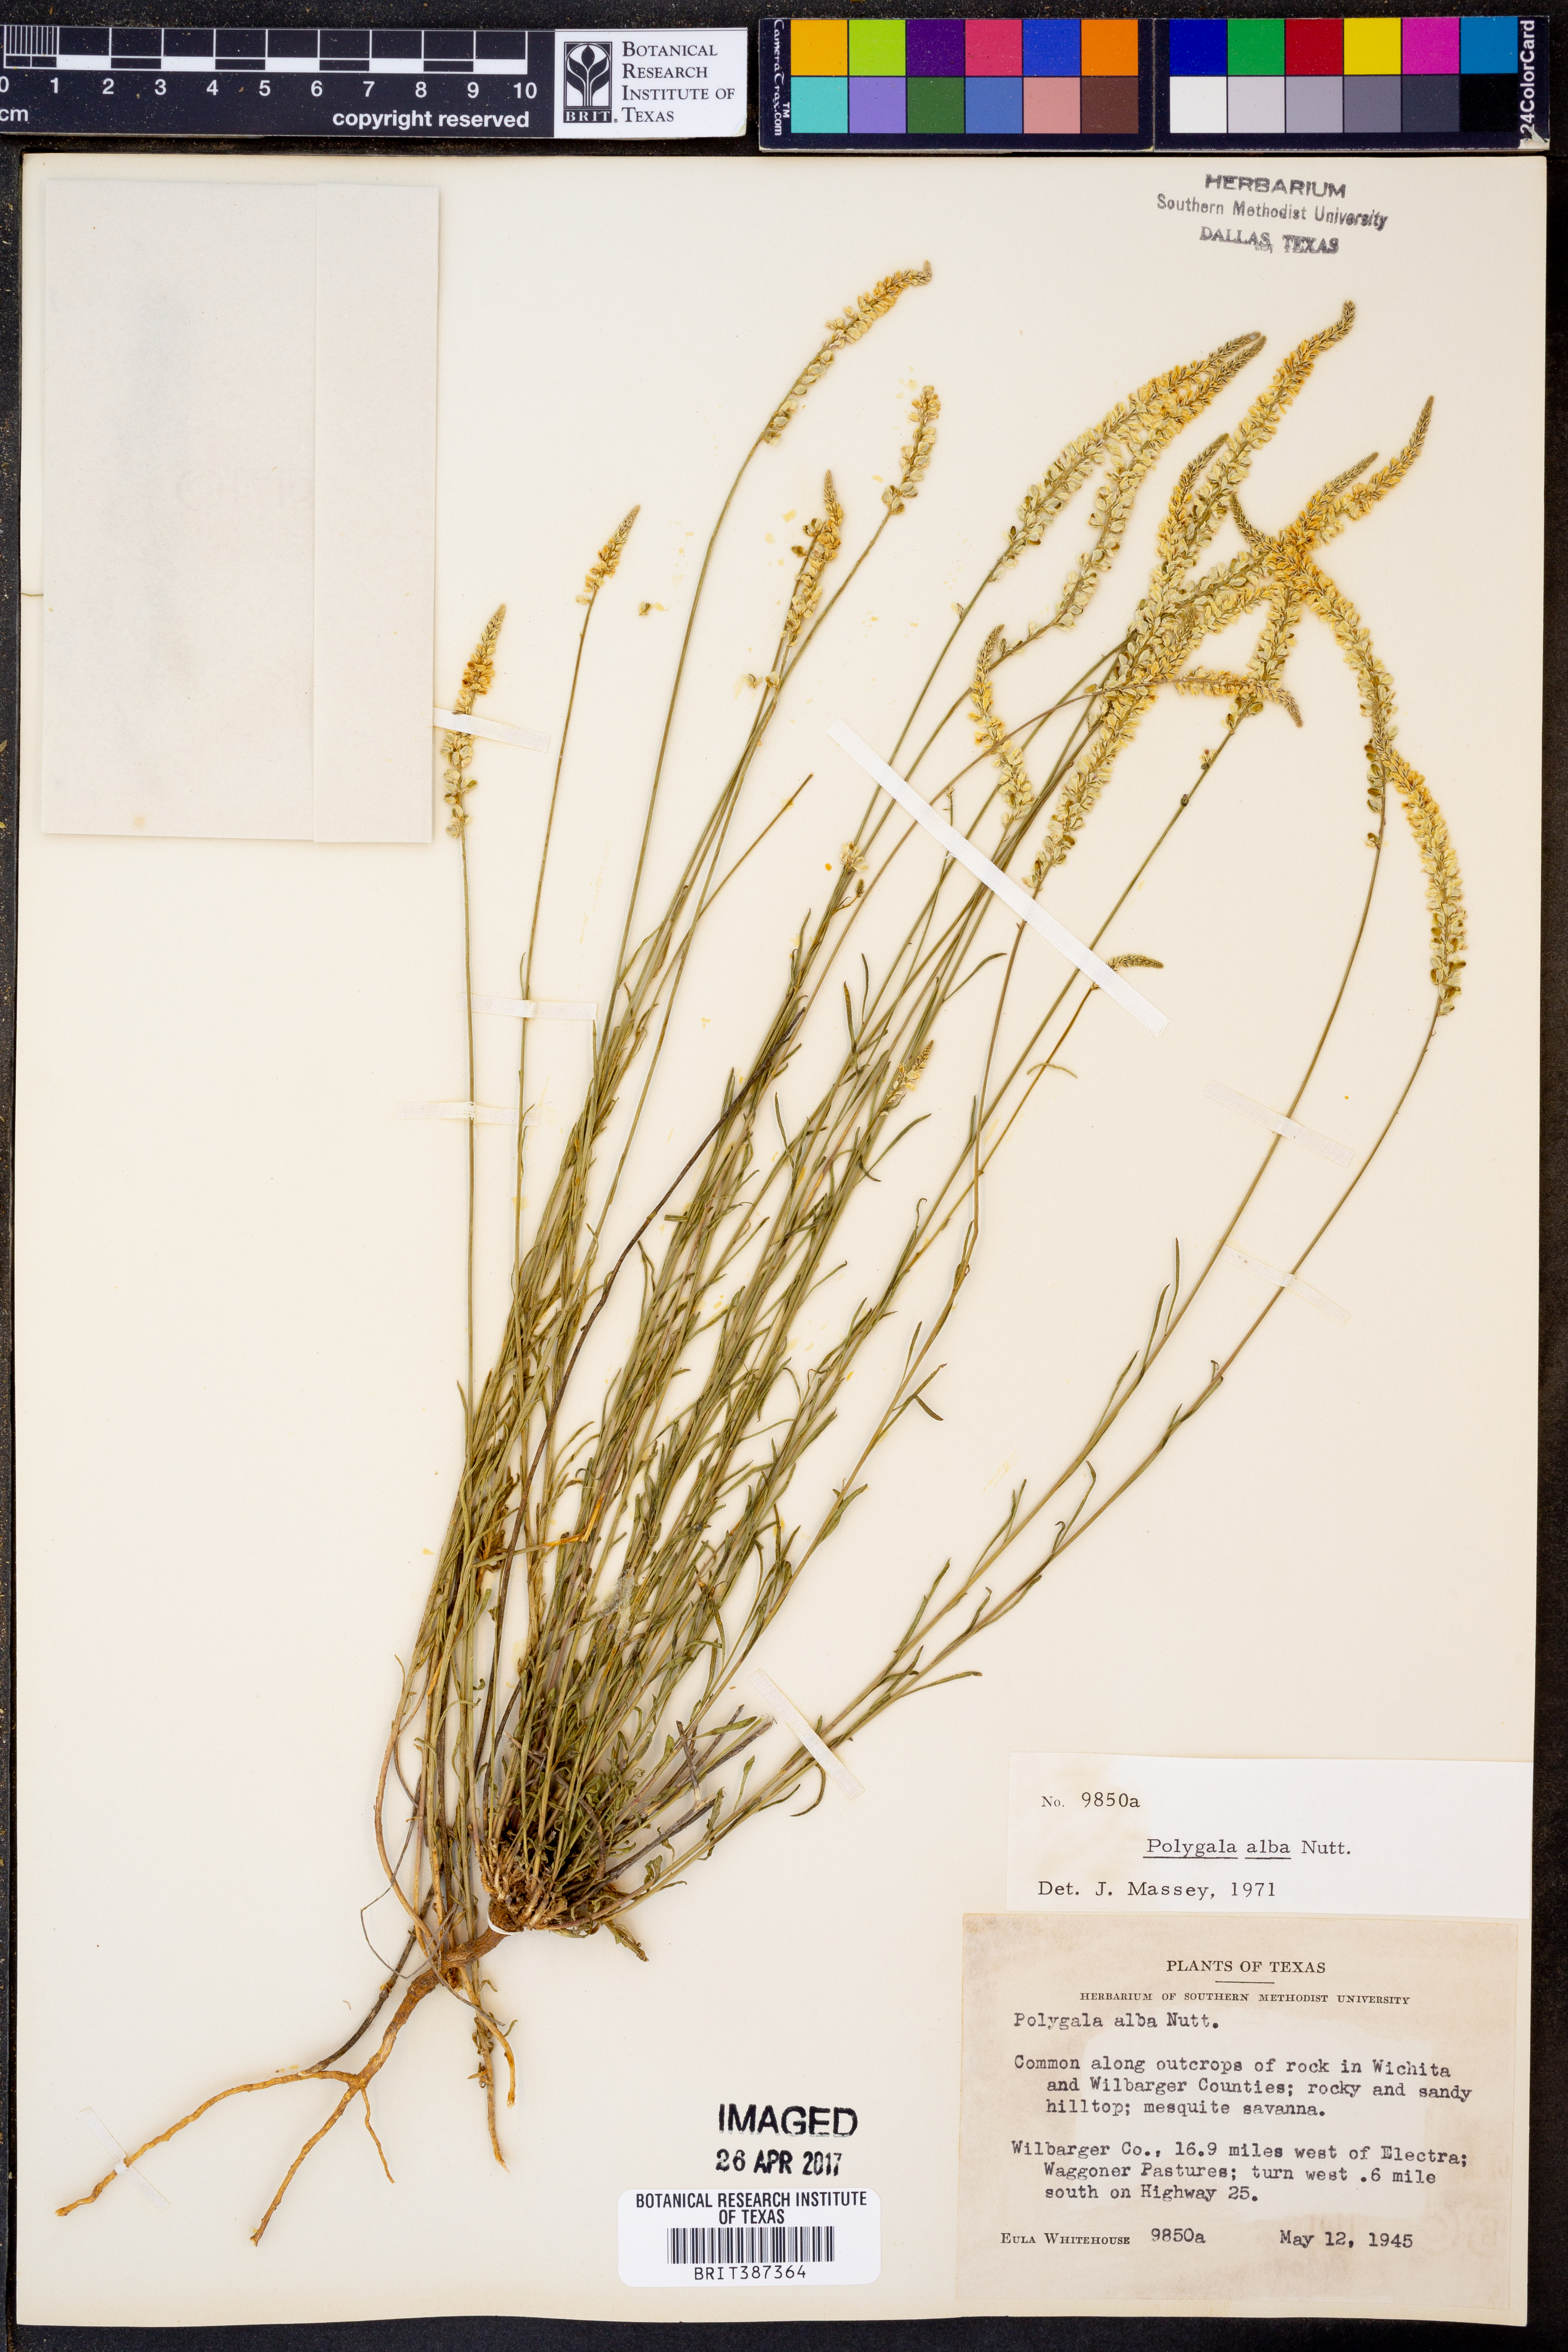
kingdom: Plantae
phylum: Tracheophyta
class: Magnoliopsida
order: Fabales
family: Polygalaceae
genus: Polygala
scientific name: Polygala alba
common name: White milkwort
